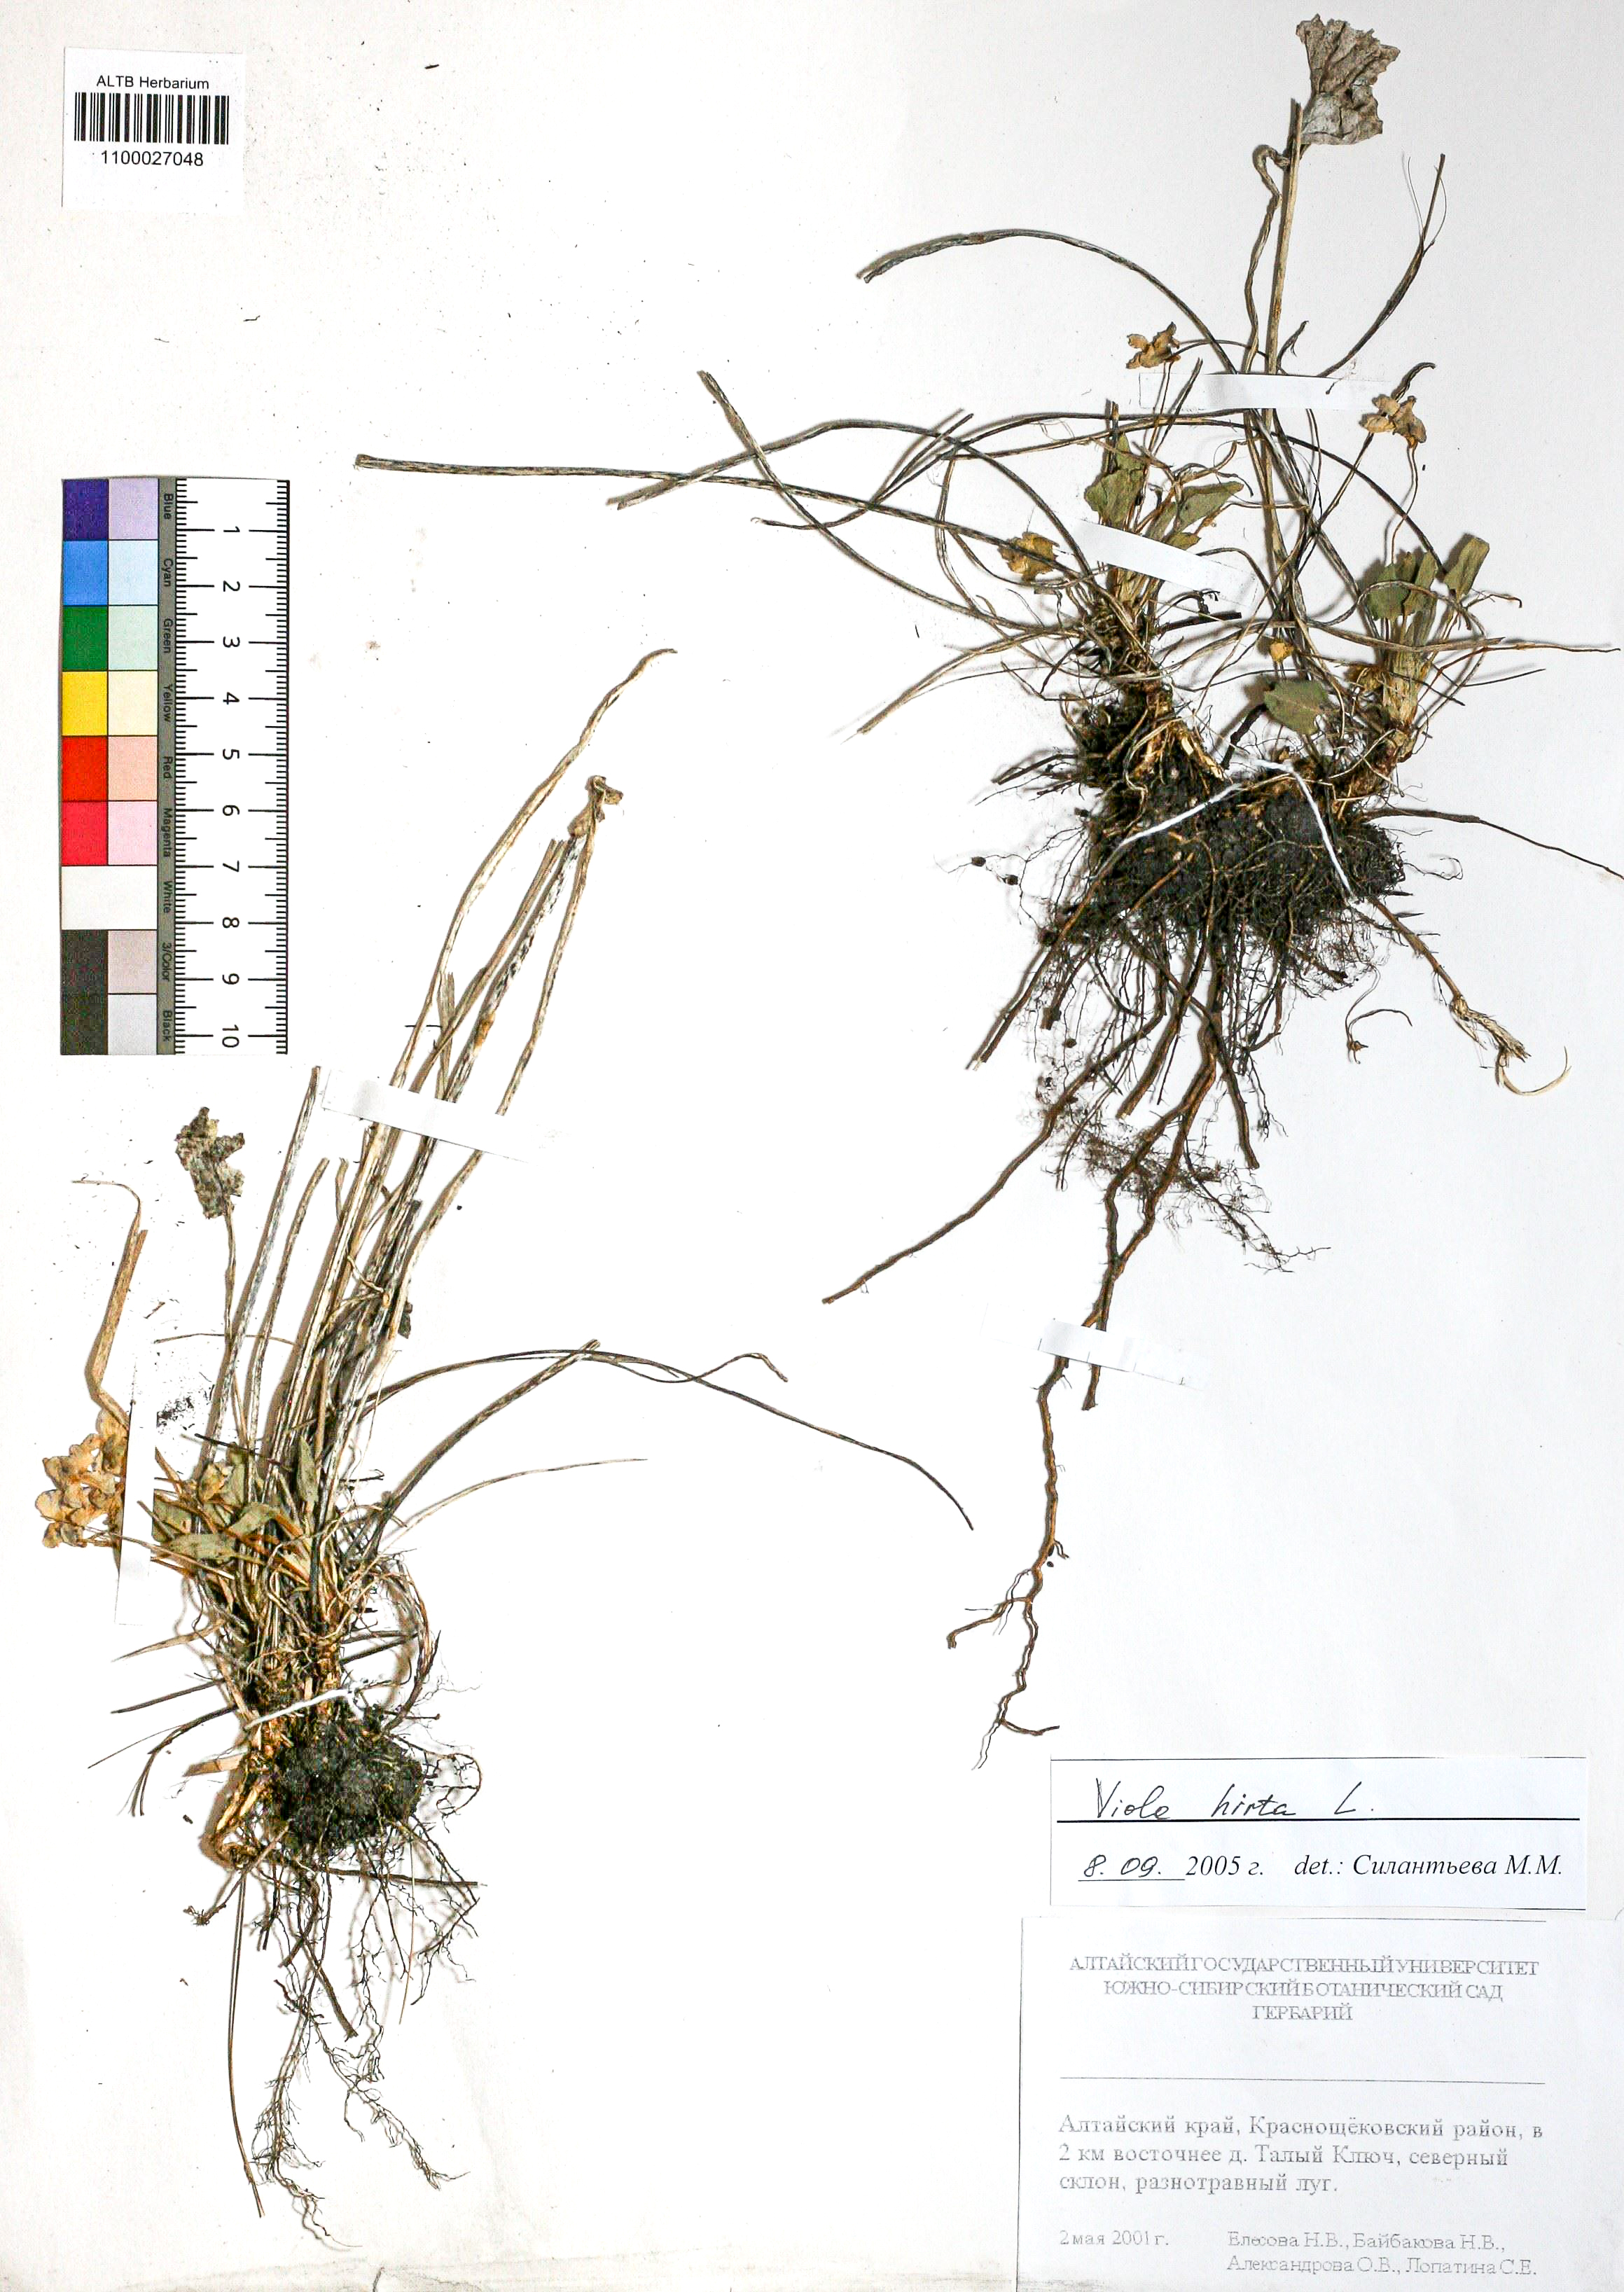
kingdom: Plantae
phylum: Tracheophyta
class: Magnoliopsida
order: Malpighiales
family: Violaceae
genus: Viola
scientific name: Viola hirta
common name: Hairy violet
